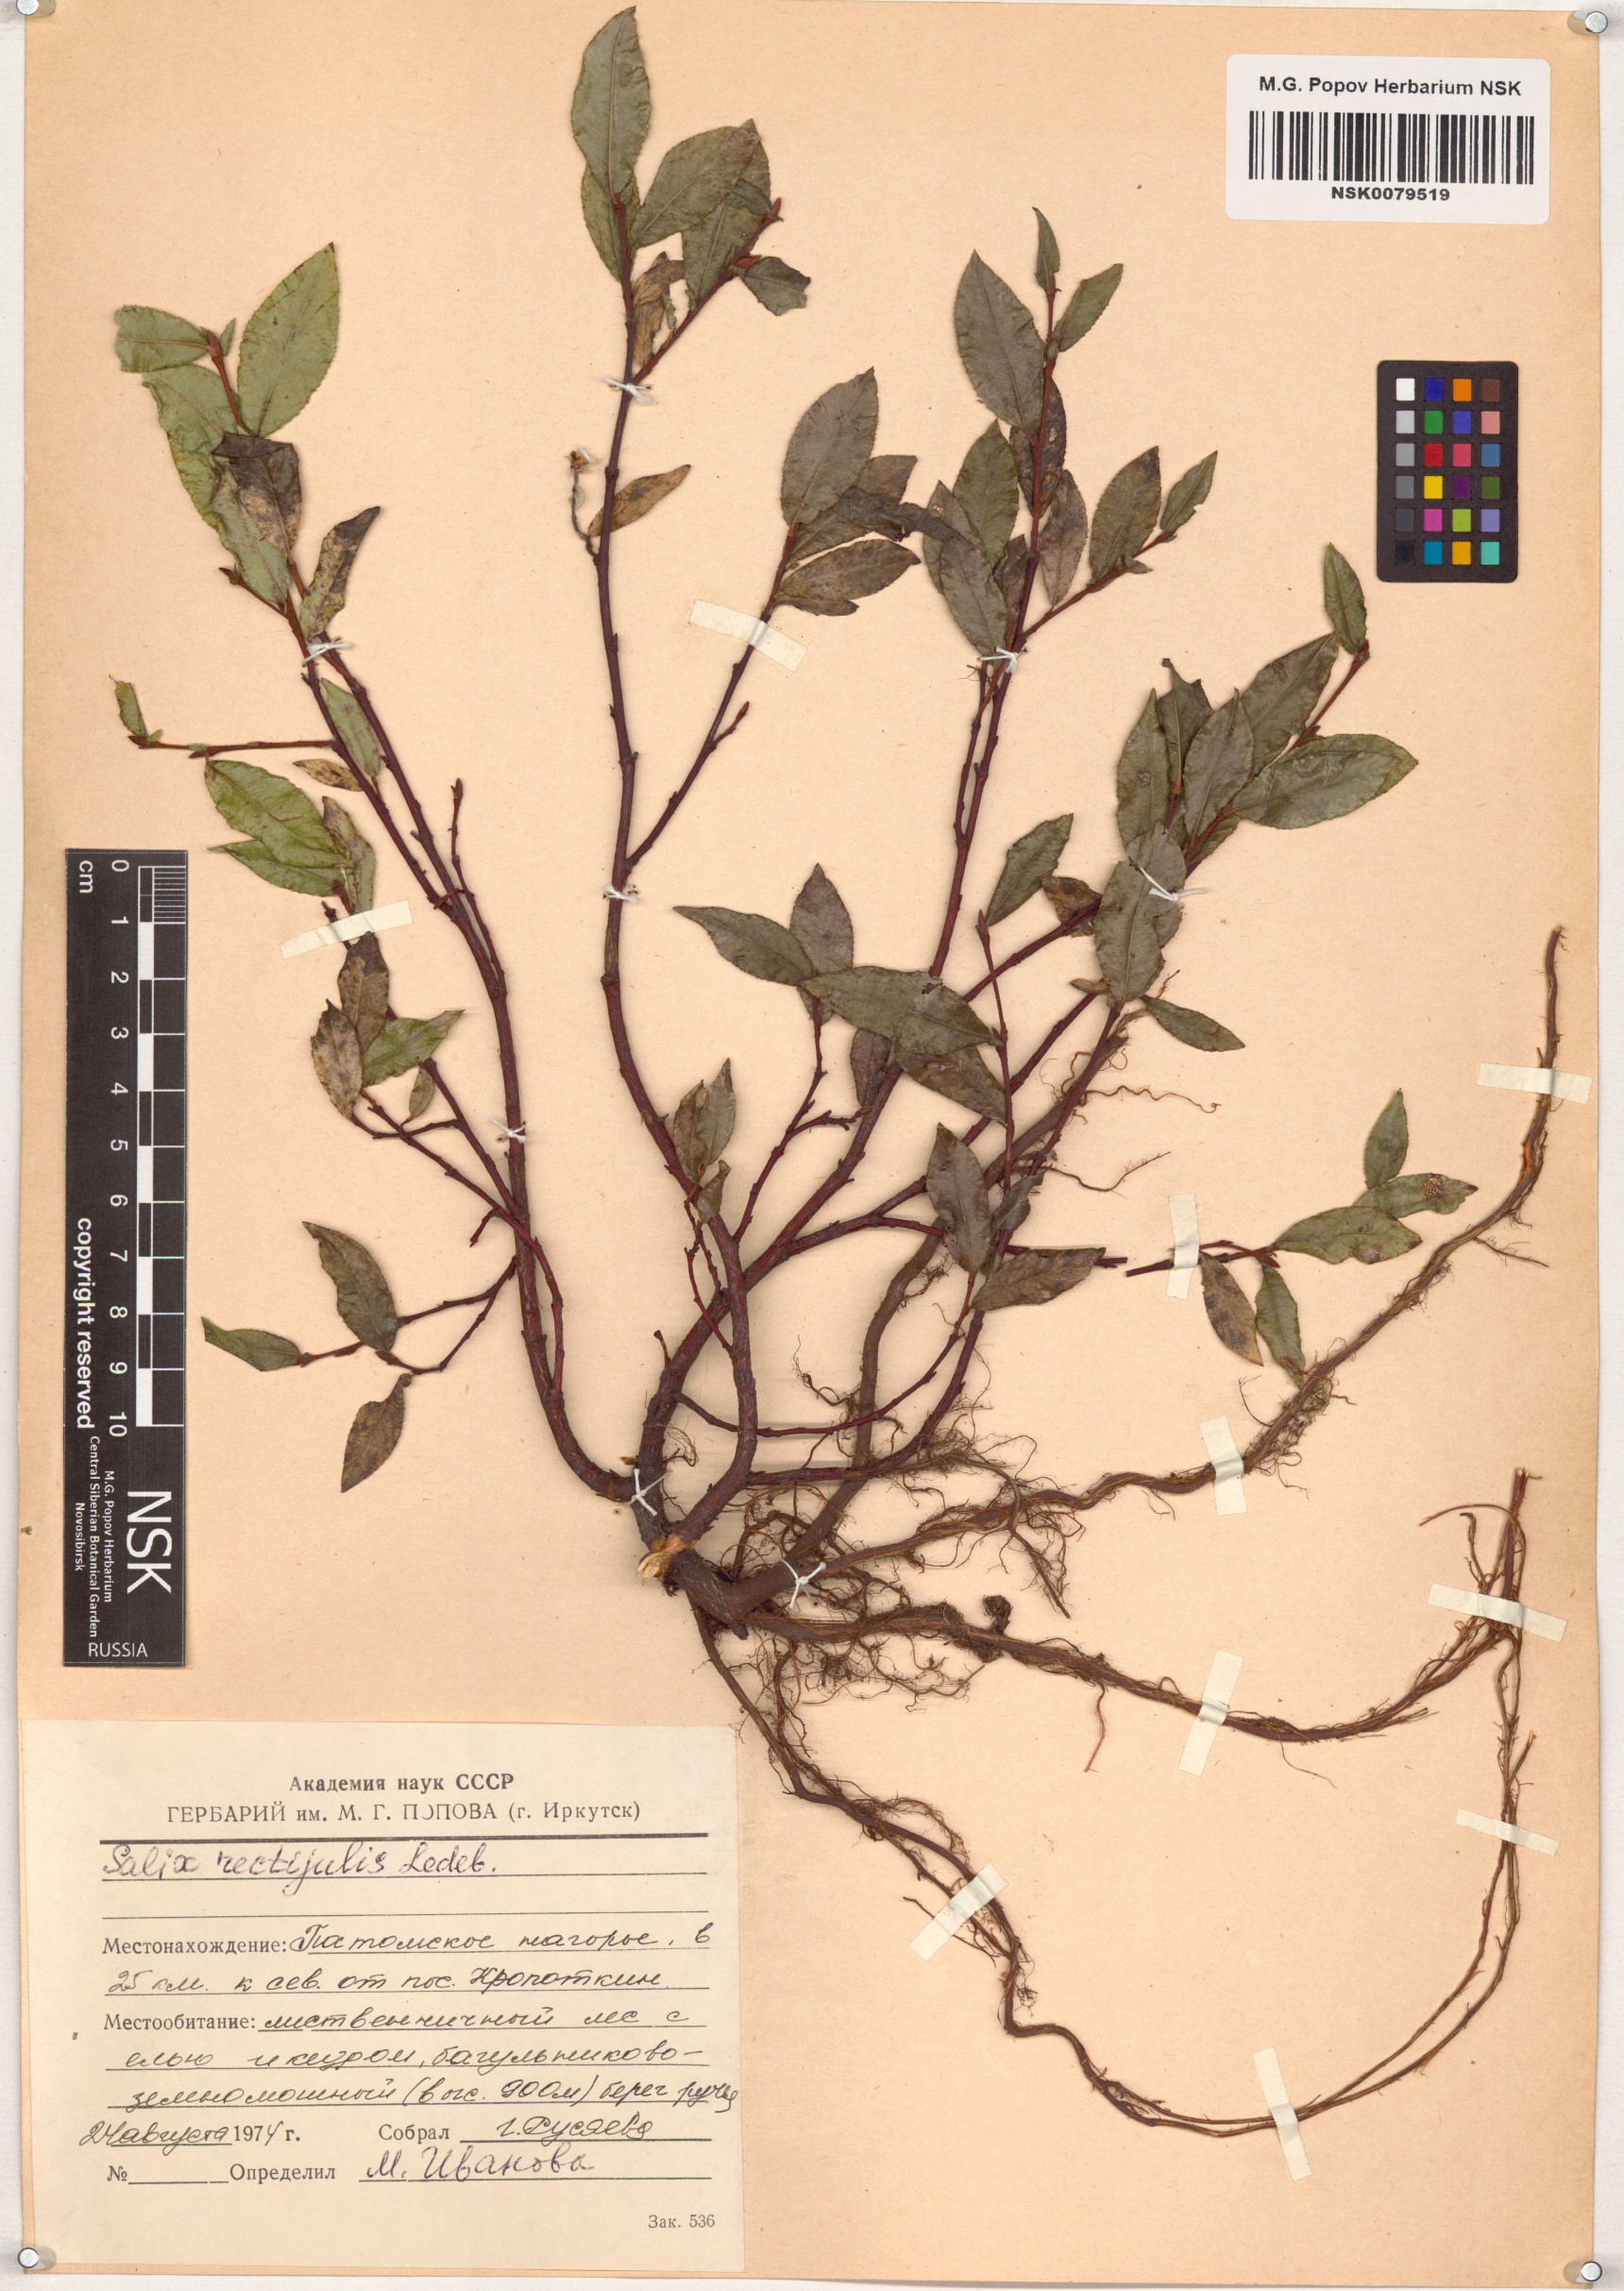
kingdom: Plantae
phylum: Tracheophyta
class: Magnoliopsida
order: Malpighiales
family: Salicaceae
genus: Salix
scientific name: Salix rectijulis
